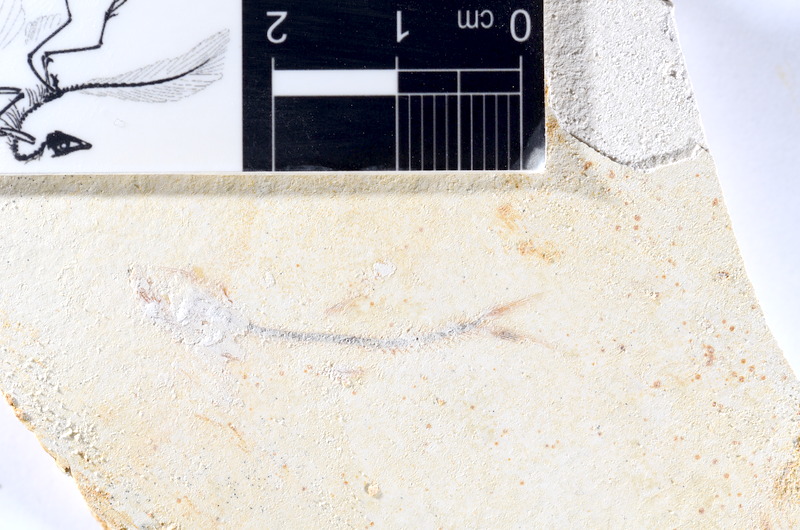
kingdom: Animalia
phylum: Chordata
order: Salmoniformes
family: Orthogonikleithridae
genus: Orthogonikleithrus
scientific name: Orthogonikleithrus hoelli
